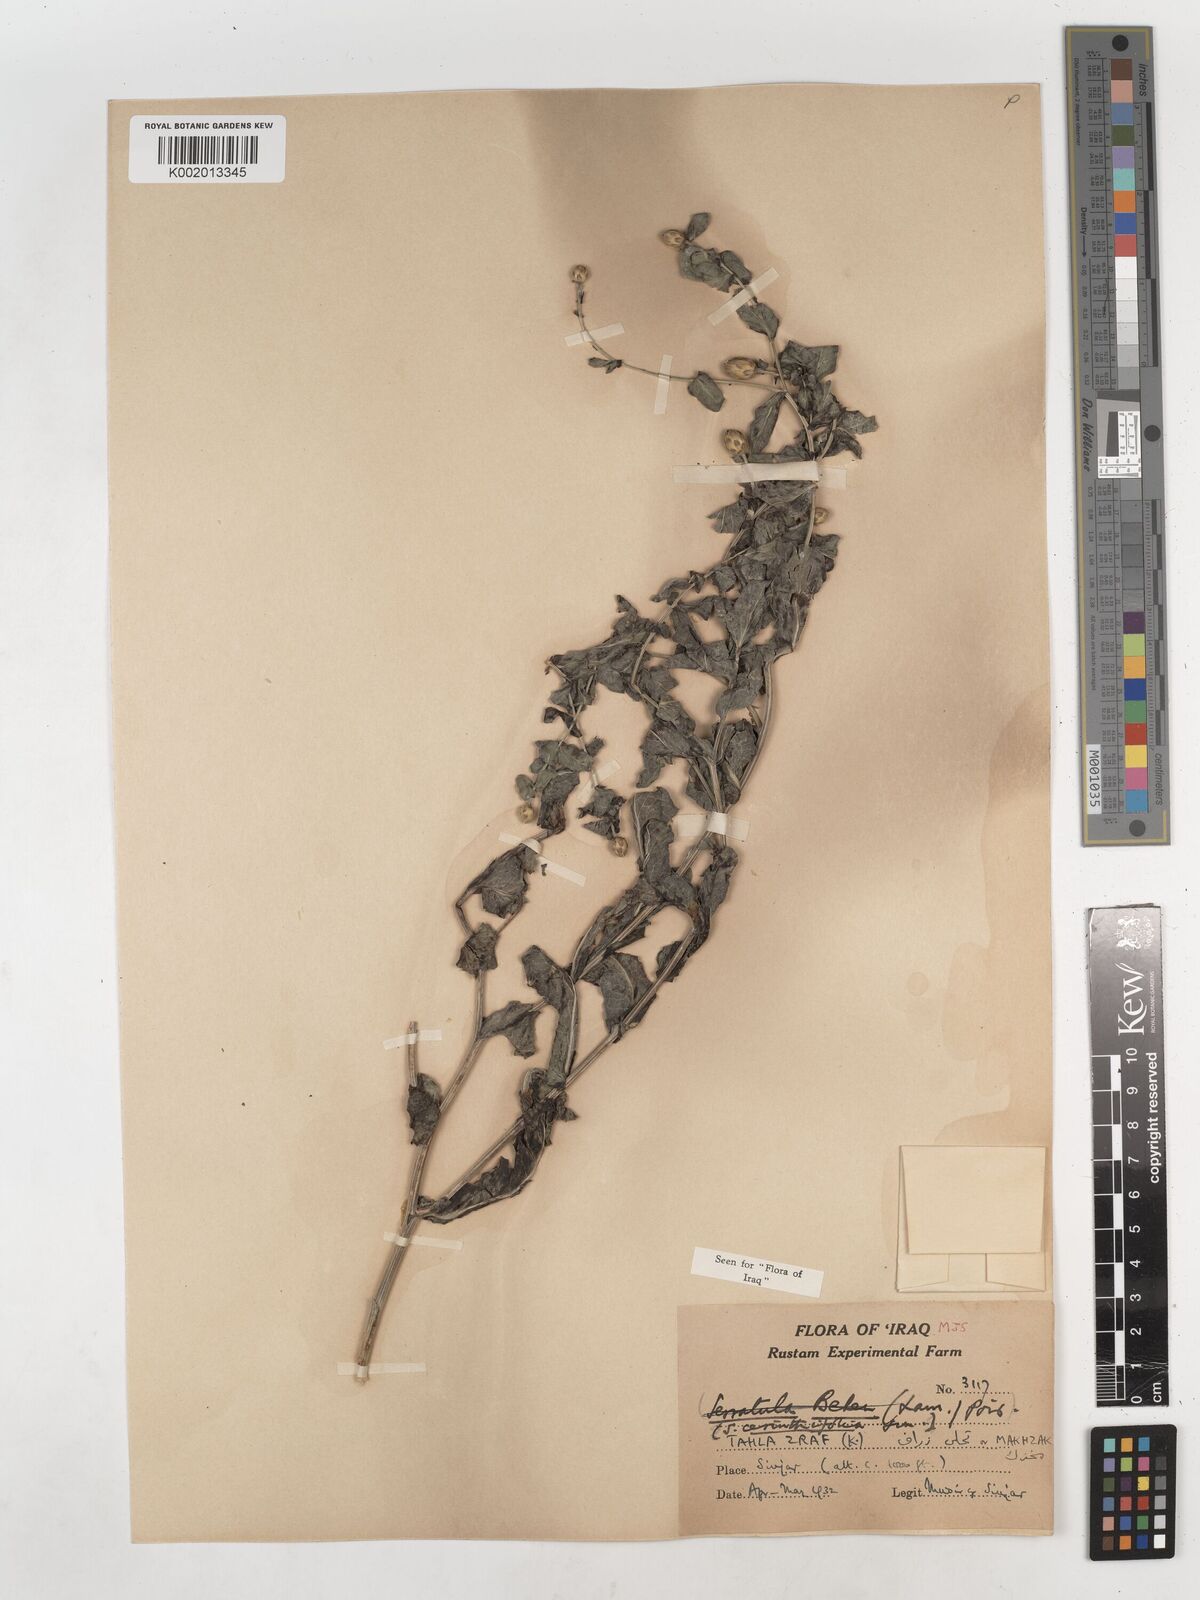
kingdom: Plantae
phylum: Tracheophyta
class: Magnoliopsida
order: Asterales
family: Asteraceae
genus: Klasea
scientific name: Klasea cerinthifolia
